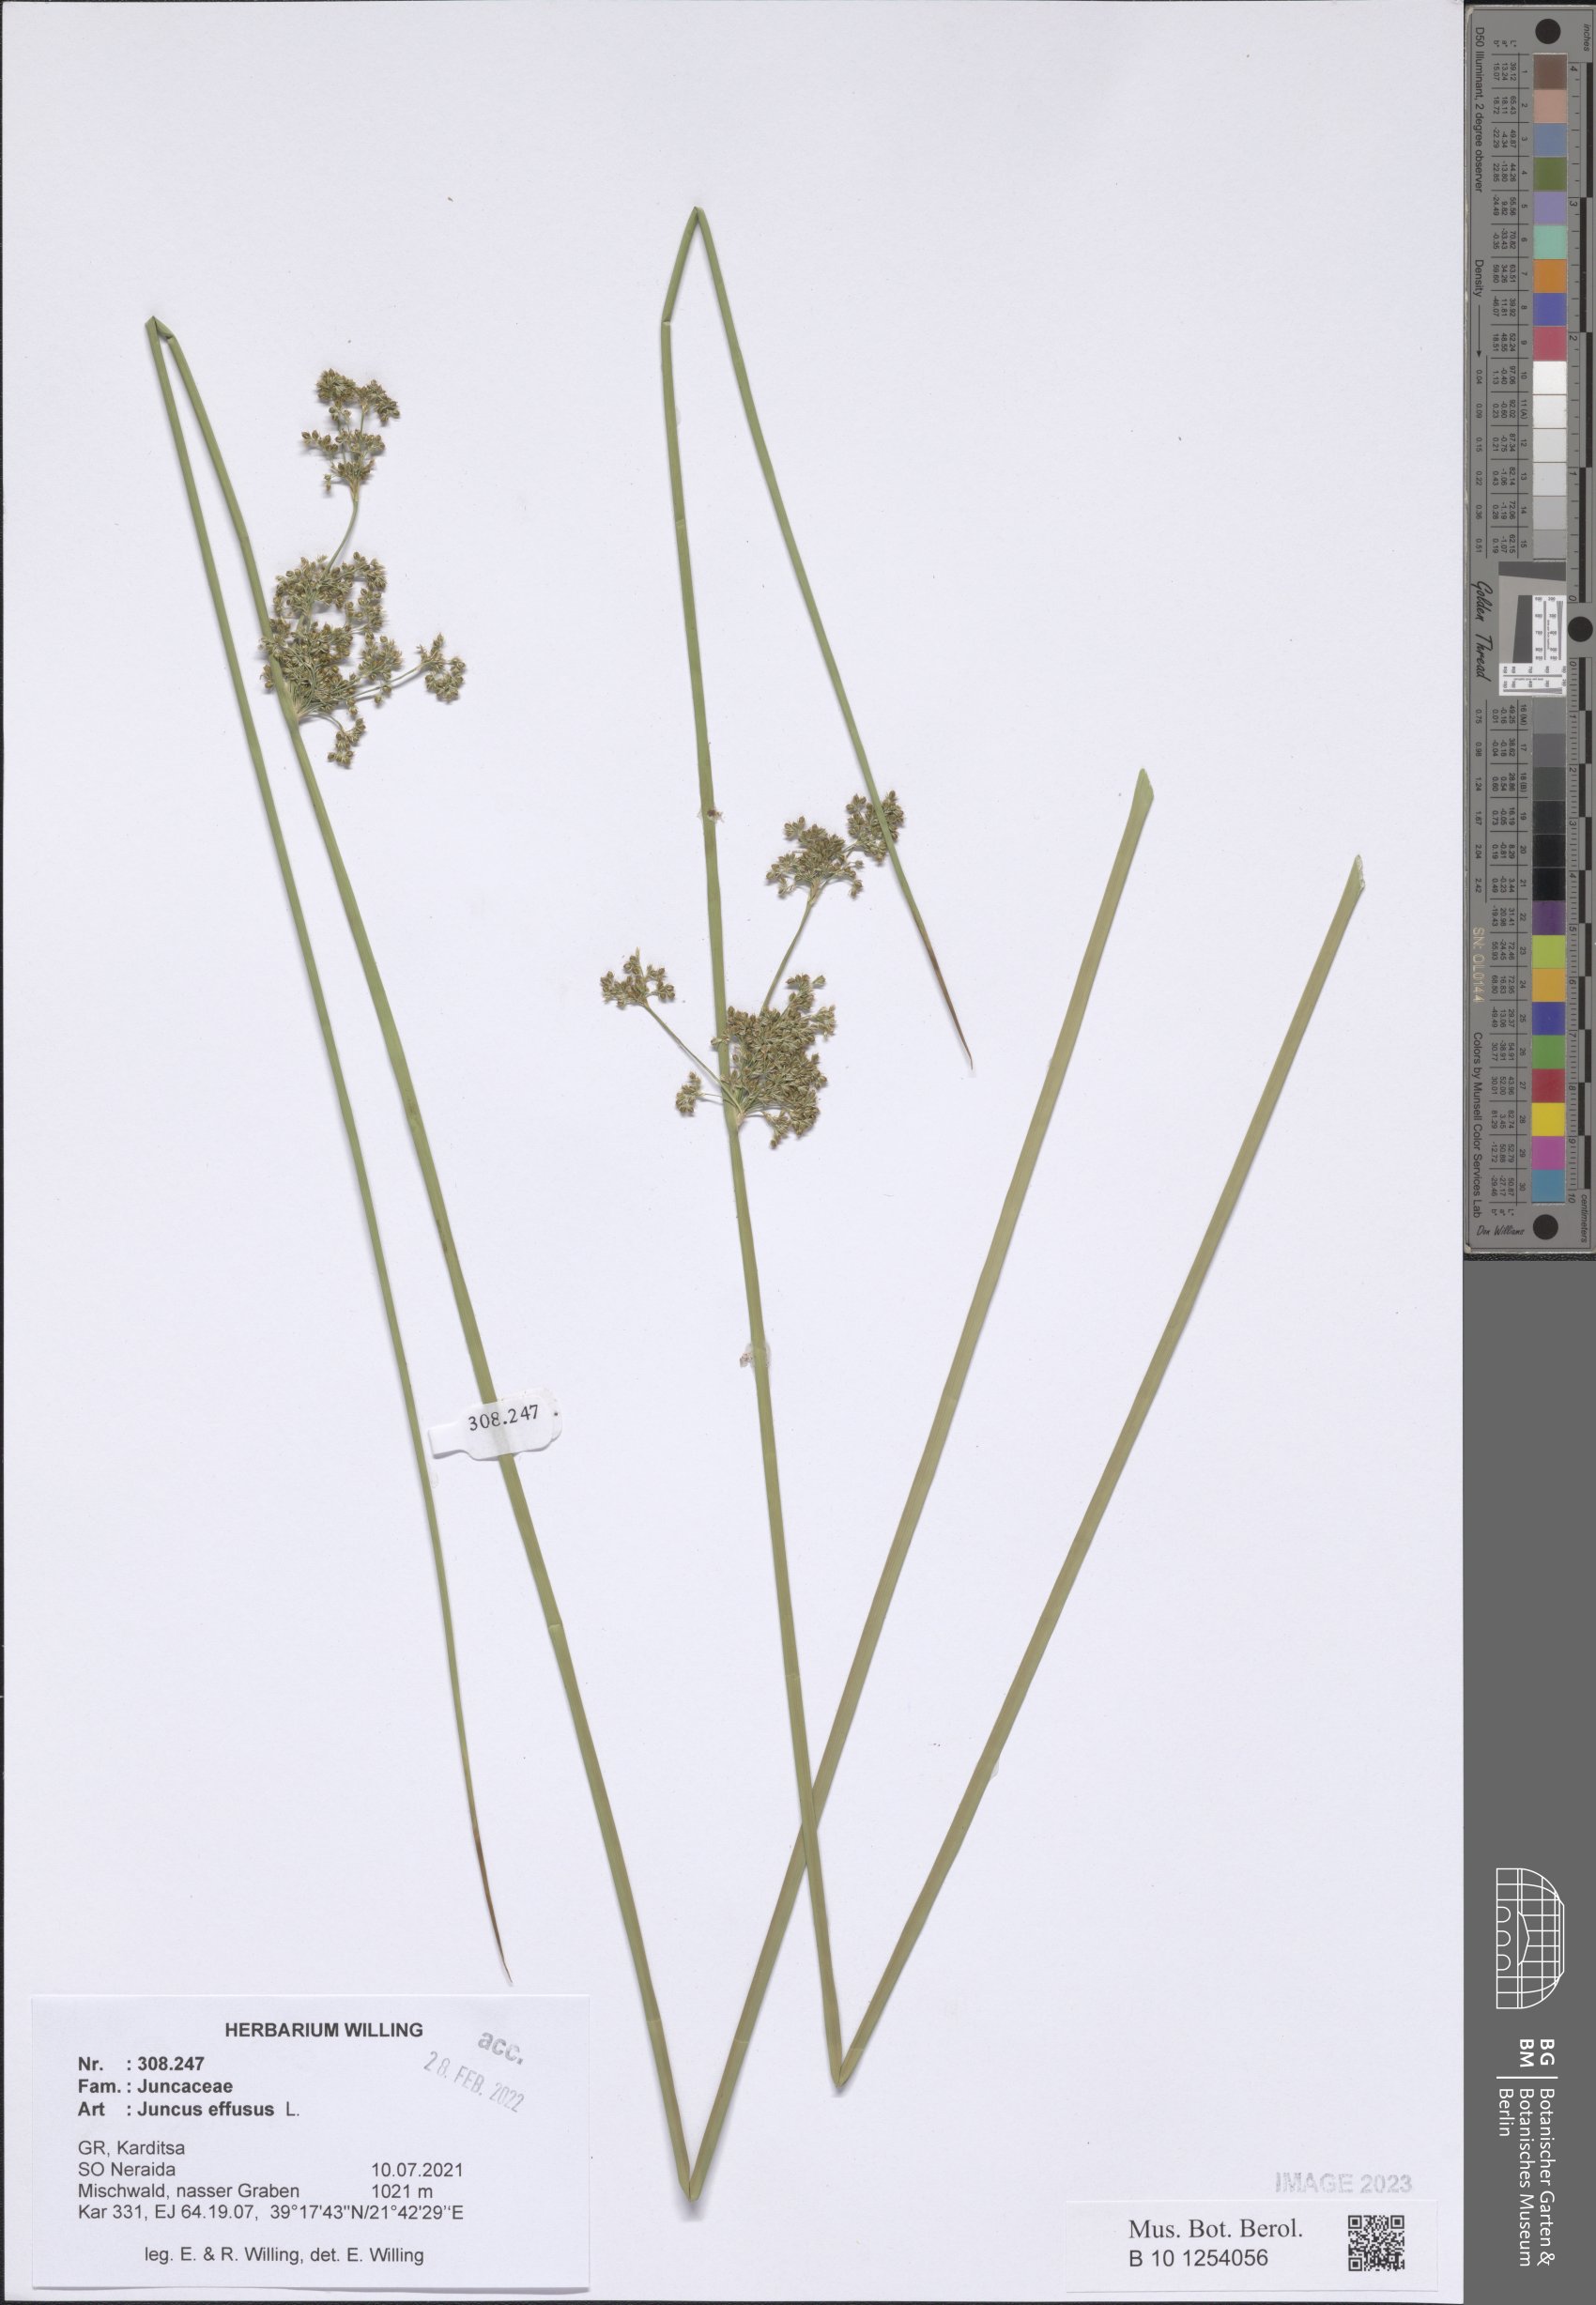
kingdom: Plantae
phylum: Tracheophyta
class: Liliopsida
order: Poales
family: Juncaceae
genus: Juncus
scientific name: Juncus effusus
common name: Soft rush
